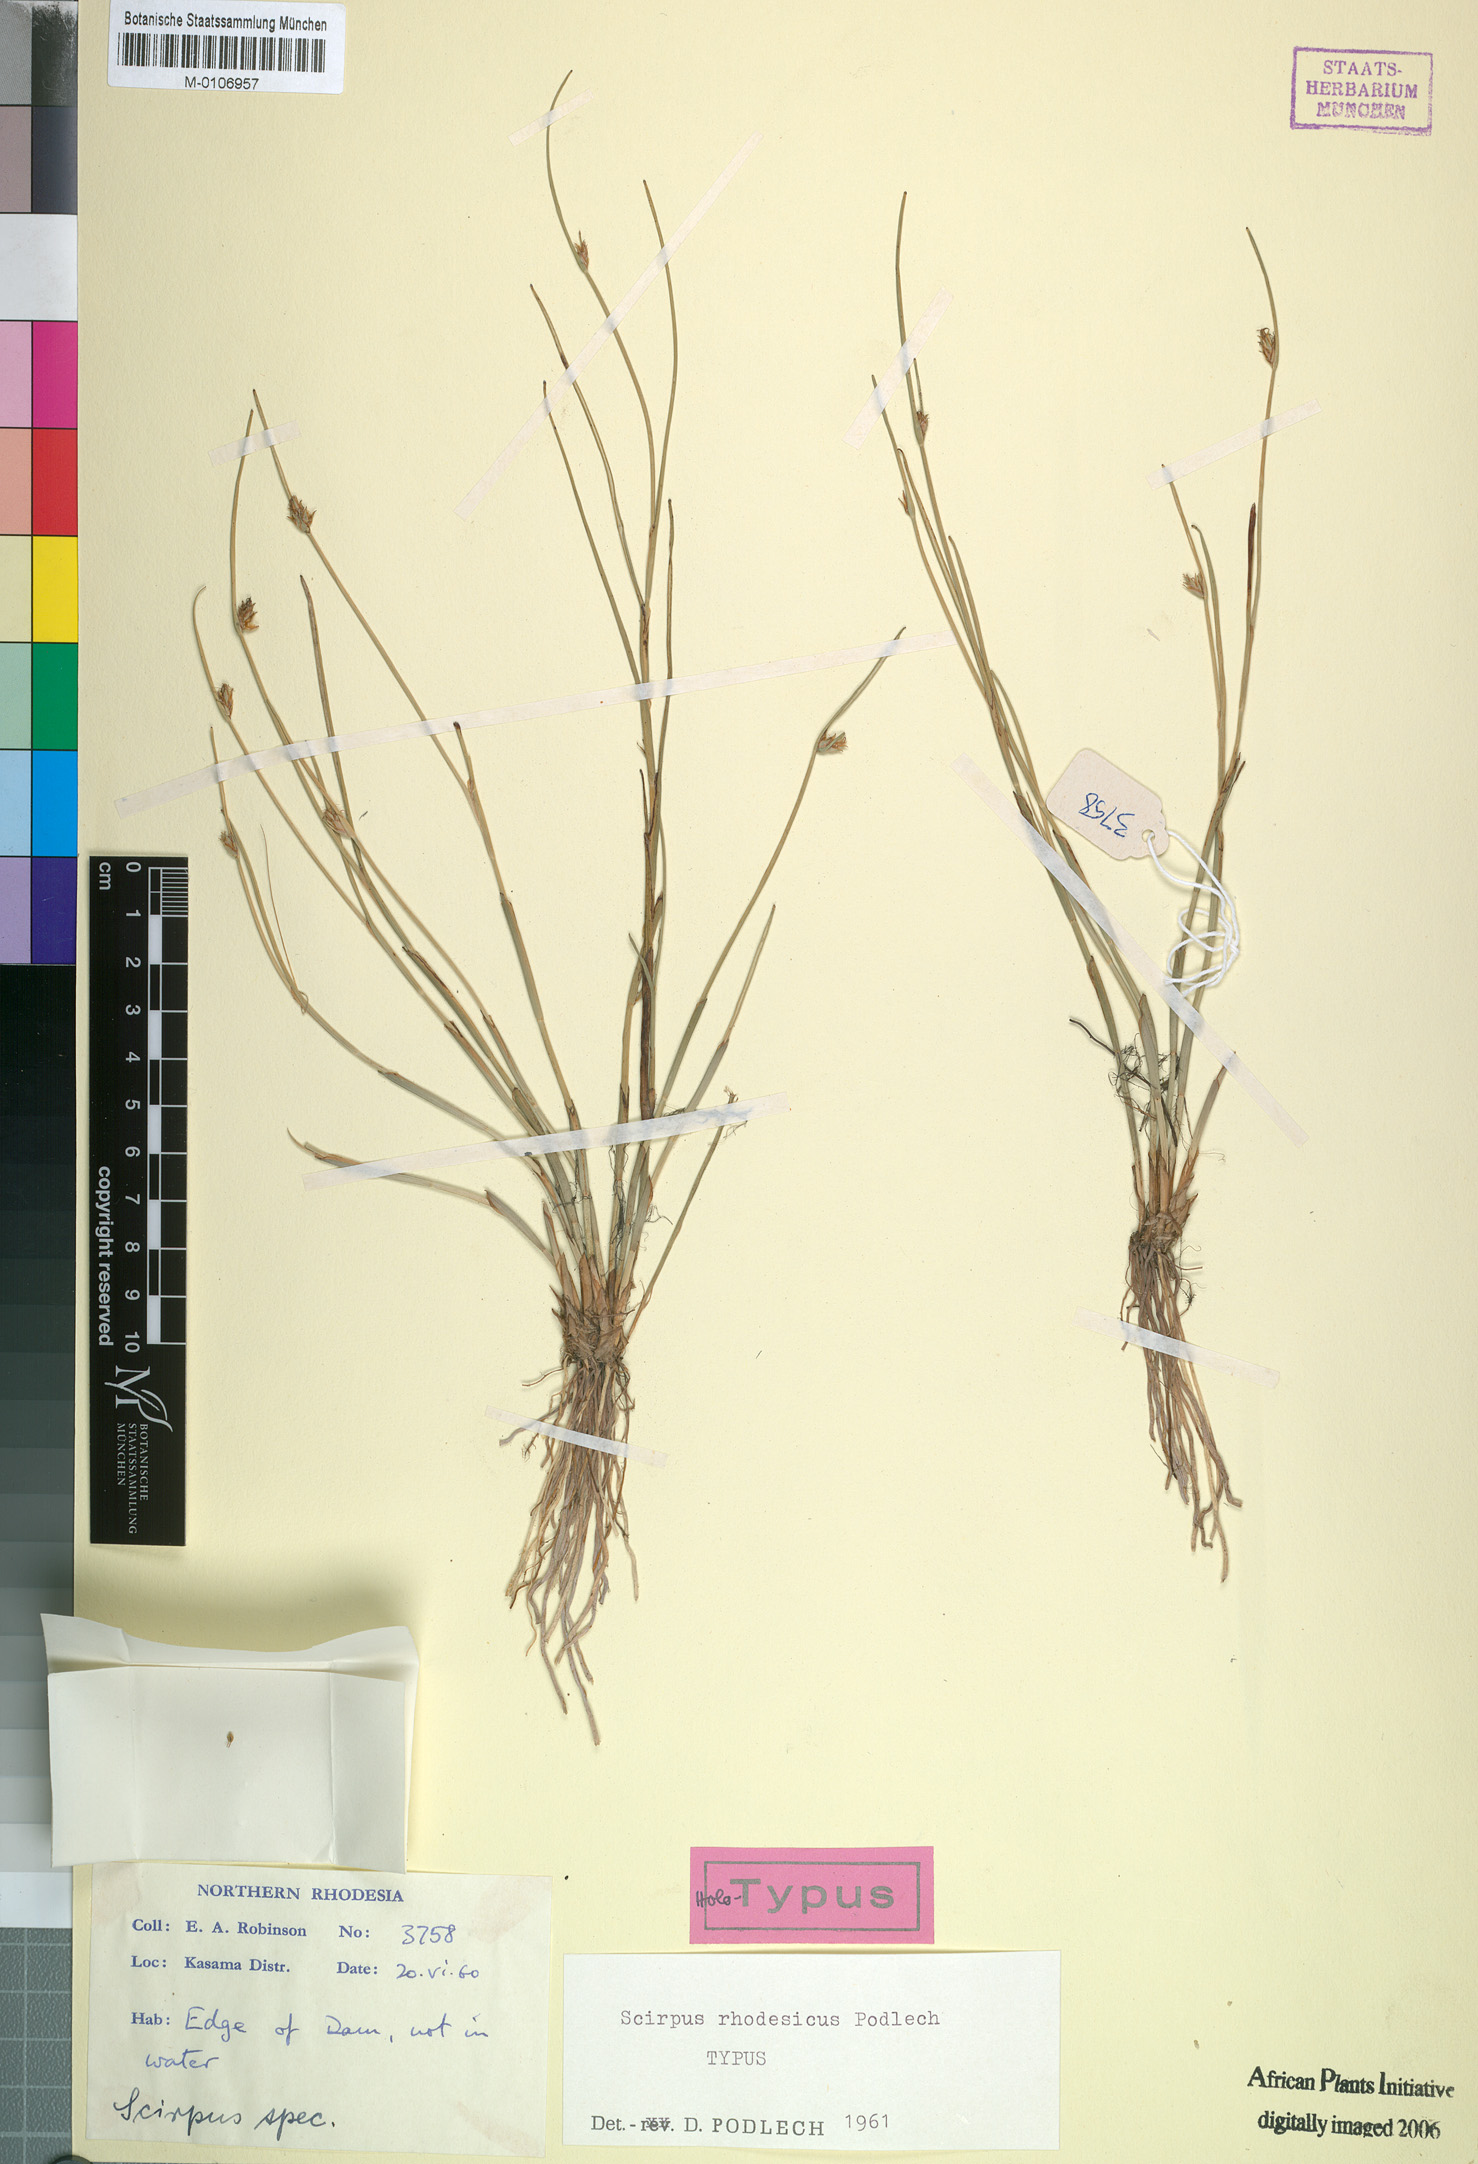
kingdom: Plantae
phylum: Tracheophyta
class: Liliopsida
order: Poales
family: Cyperaceae
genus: Schoenoplectiella
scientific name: Schoenoplectiella rhodesica
